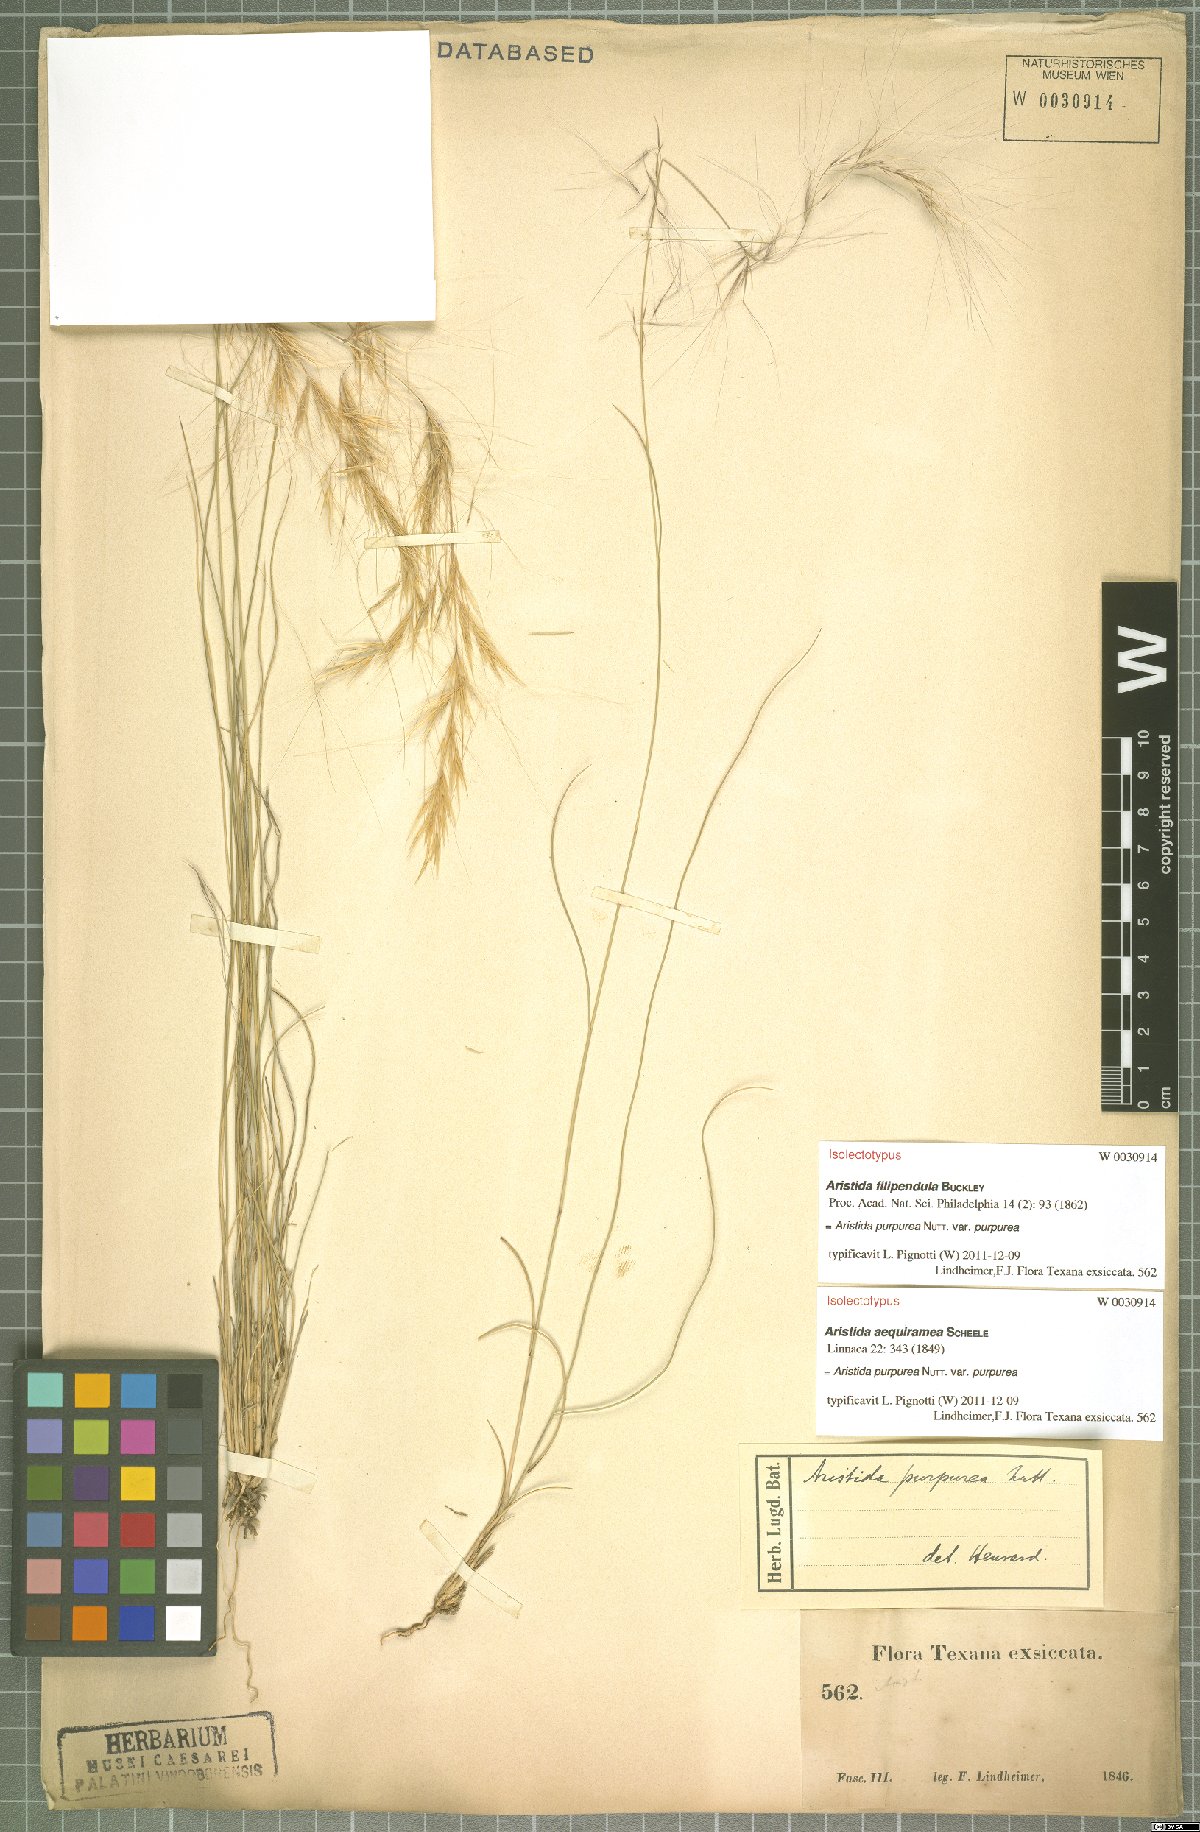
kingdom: Plantae
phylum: Tracheophyta
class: Liliopsida
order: Poales
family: Poaceae
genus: Aristida
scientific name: Aristida purpurea
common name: Purple threeawn
